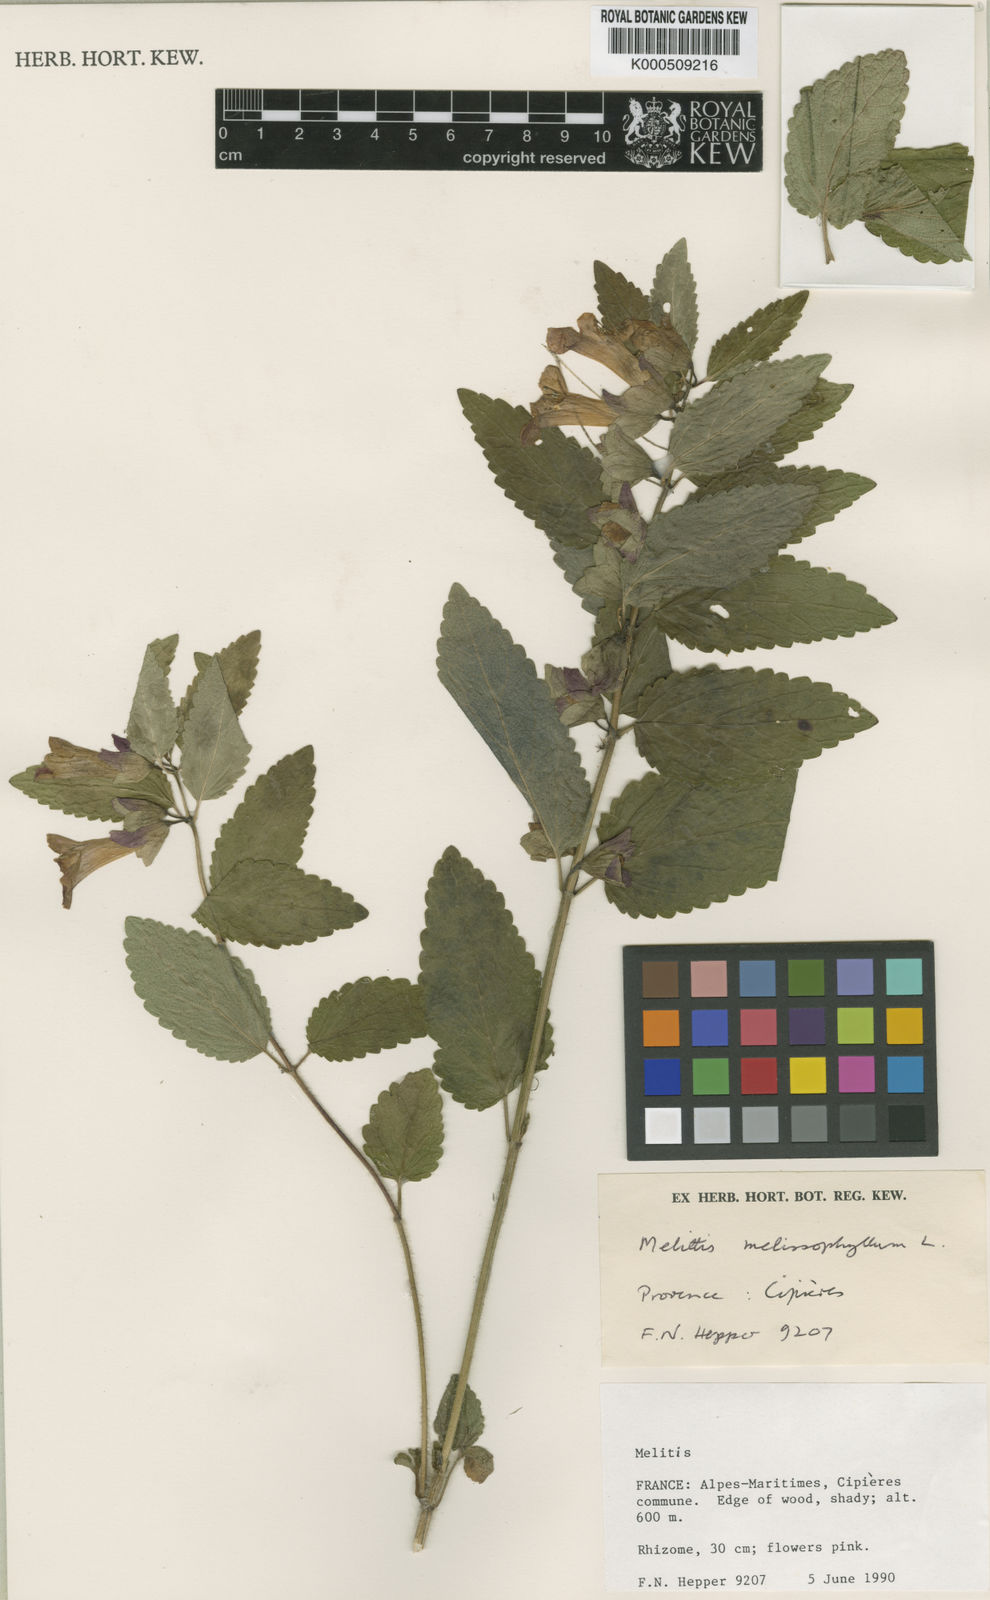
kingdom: Plantae
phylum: Tracheophyta
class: Magnoliopsida
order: Lamiales
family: Lamiaceae
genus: Melittis
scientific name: Melittis melissophyllum
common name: Bastard balm
